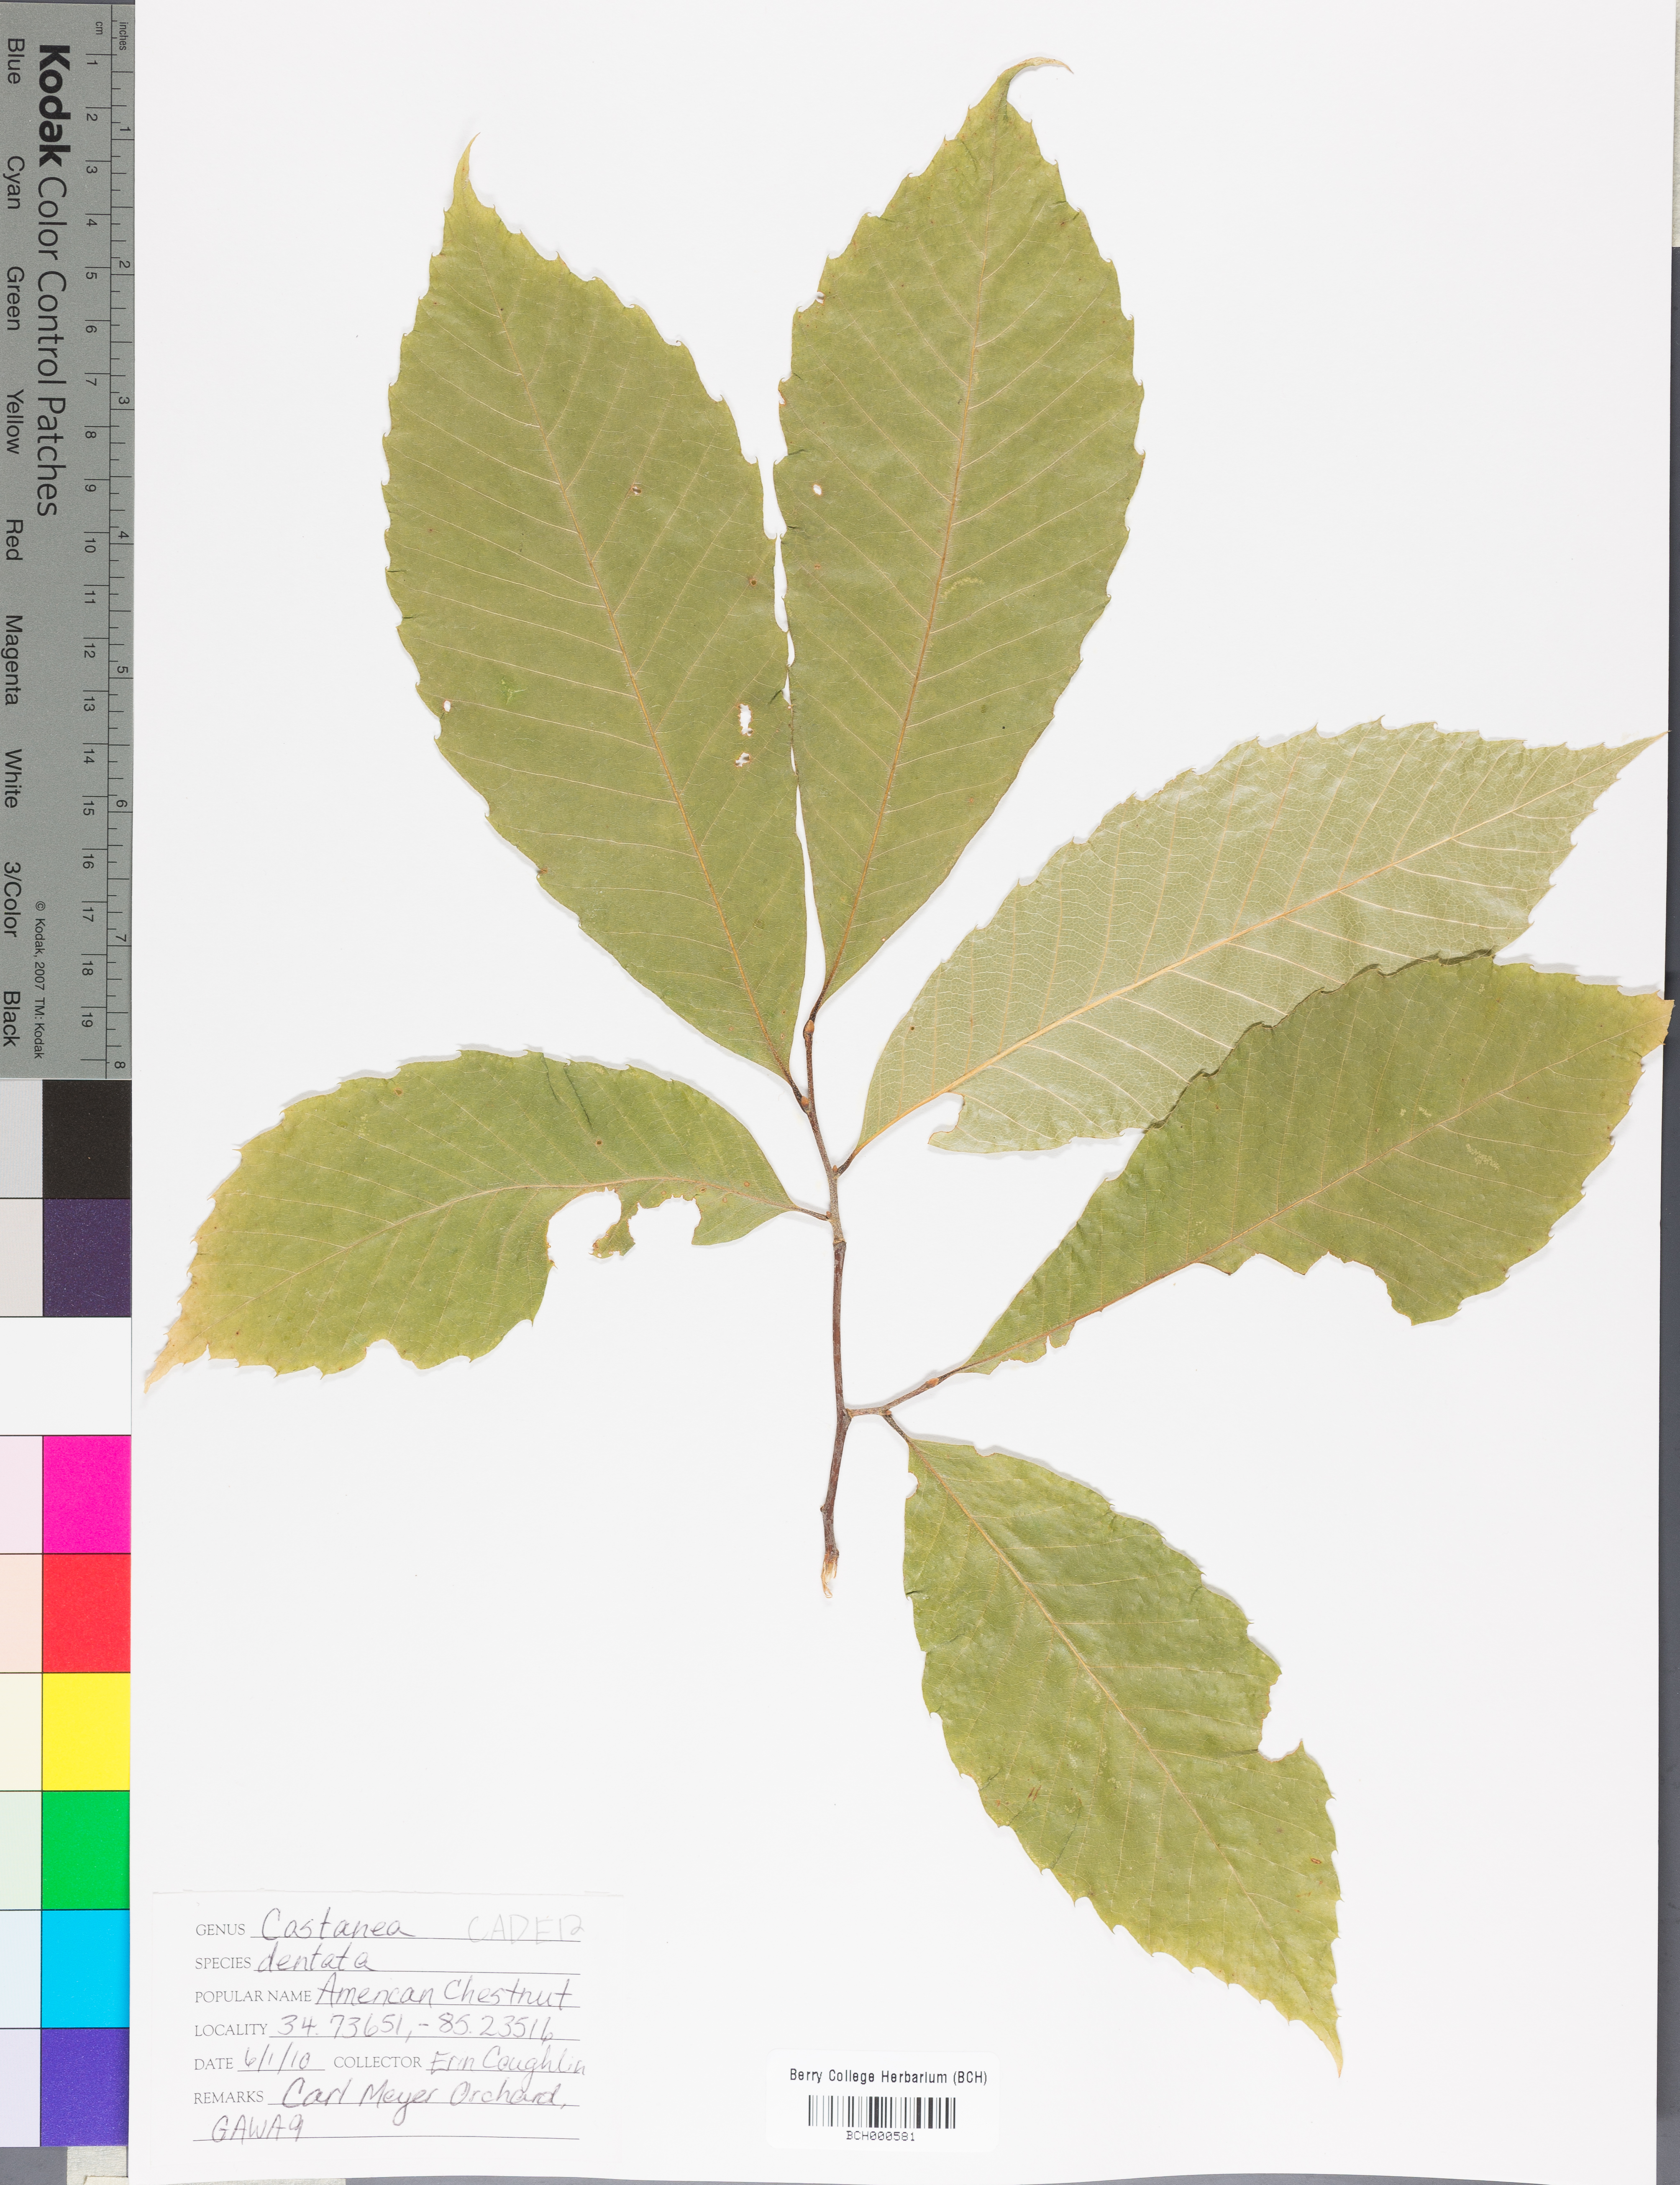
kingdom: Plantae
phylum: Tracheophyta
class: Magnoliopsida
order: Fagales
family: Fagaceae
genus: Castanea
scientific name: Castanea dentata
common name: American chestnut
